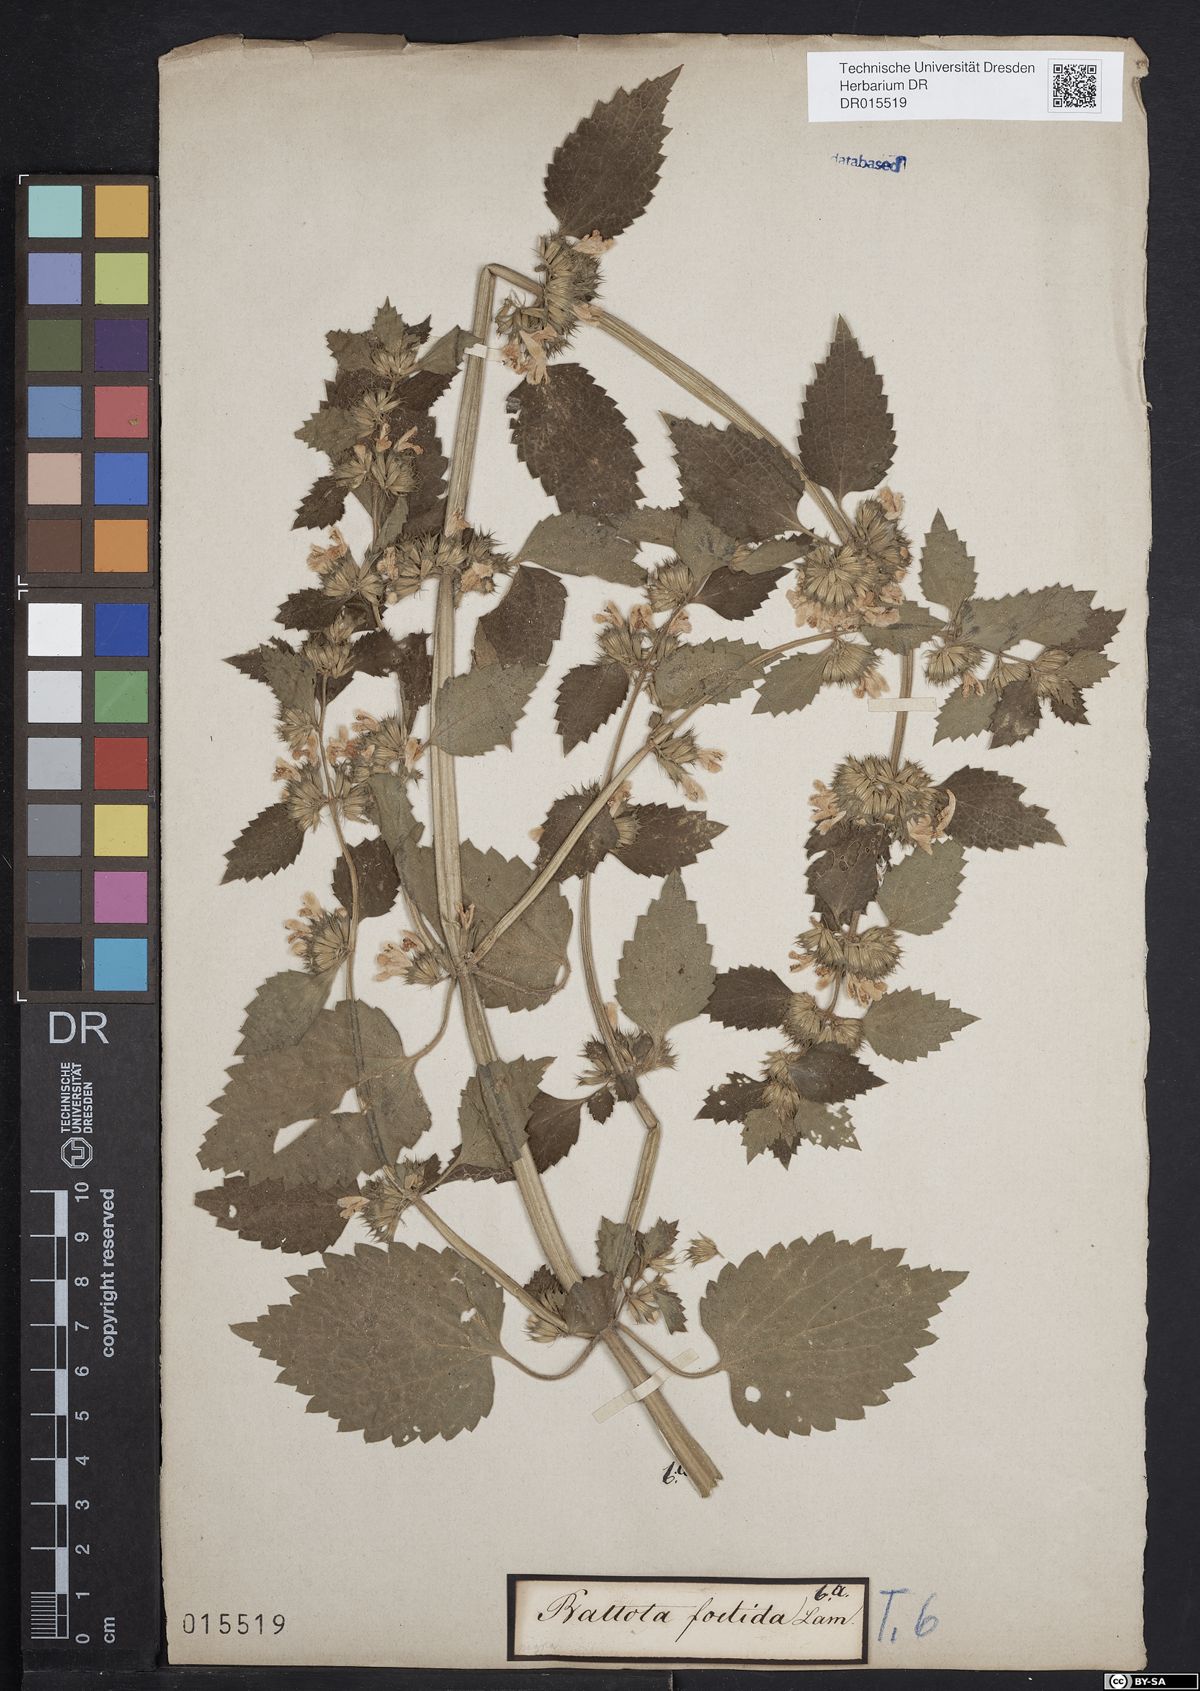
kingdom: Plantae
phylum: Tracheophyta
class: Magnoliopsida
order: Lamiales
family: Lamiaceae
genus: Ballota
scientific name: Ballota nigra
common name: Black horehound
